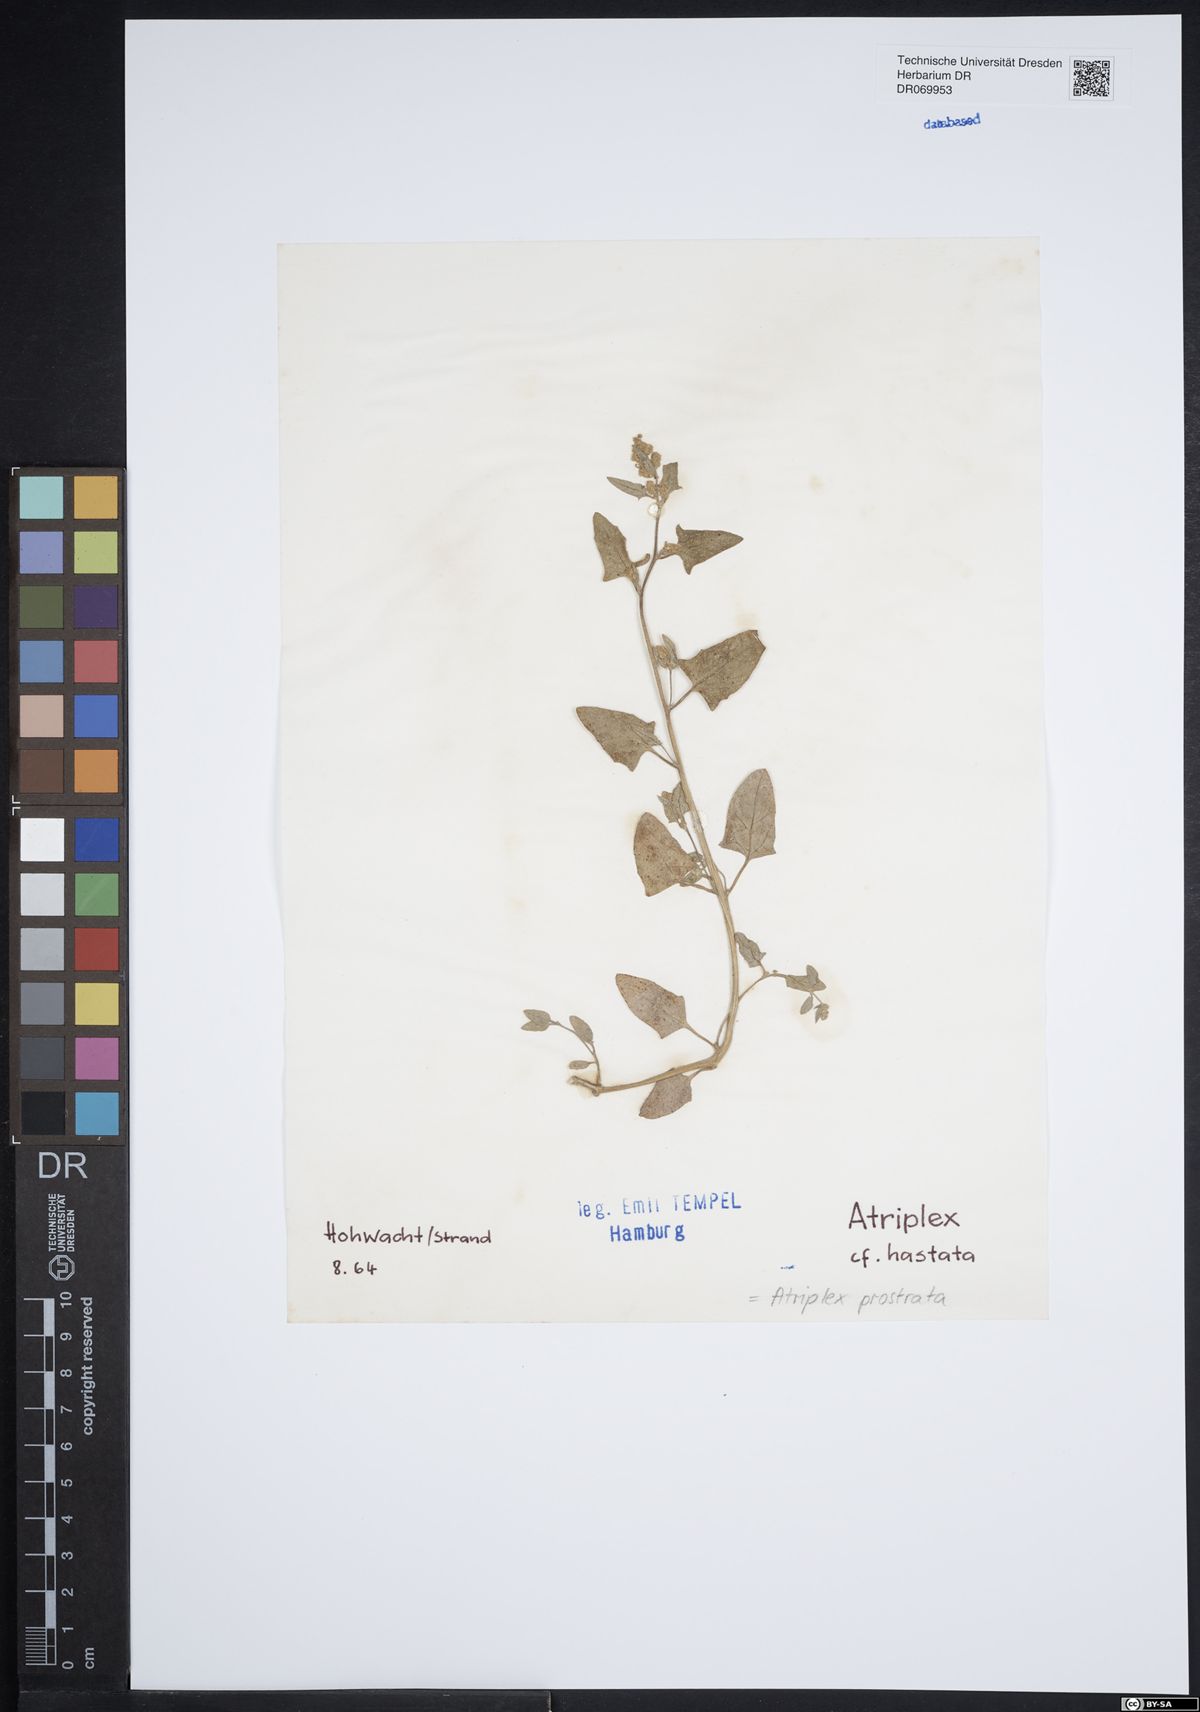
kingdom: Plantae
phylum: Tracheophyta
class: Magnoliopsida
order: Caryophyllales
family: Amaranthaceae
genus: Atriplex
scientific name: Atriplex prostrata
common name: Spear-leaved orache
